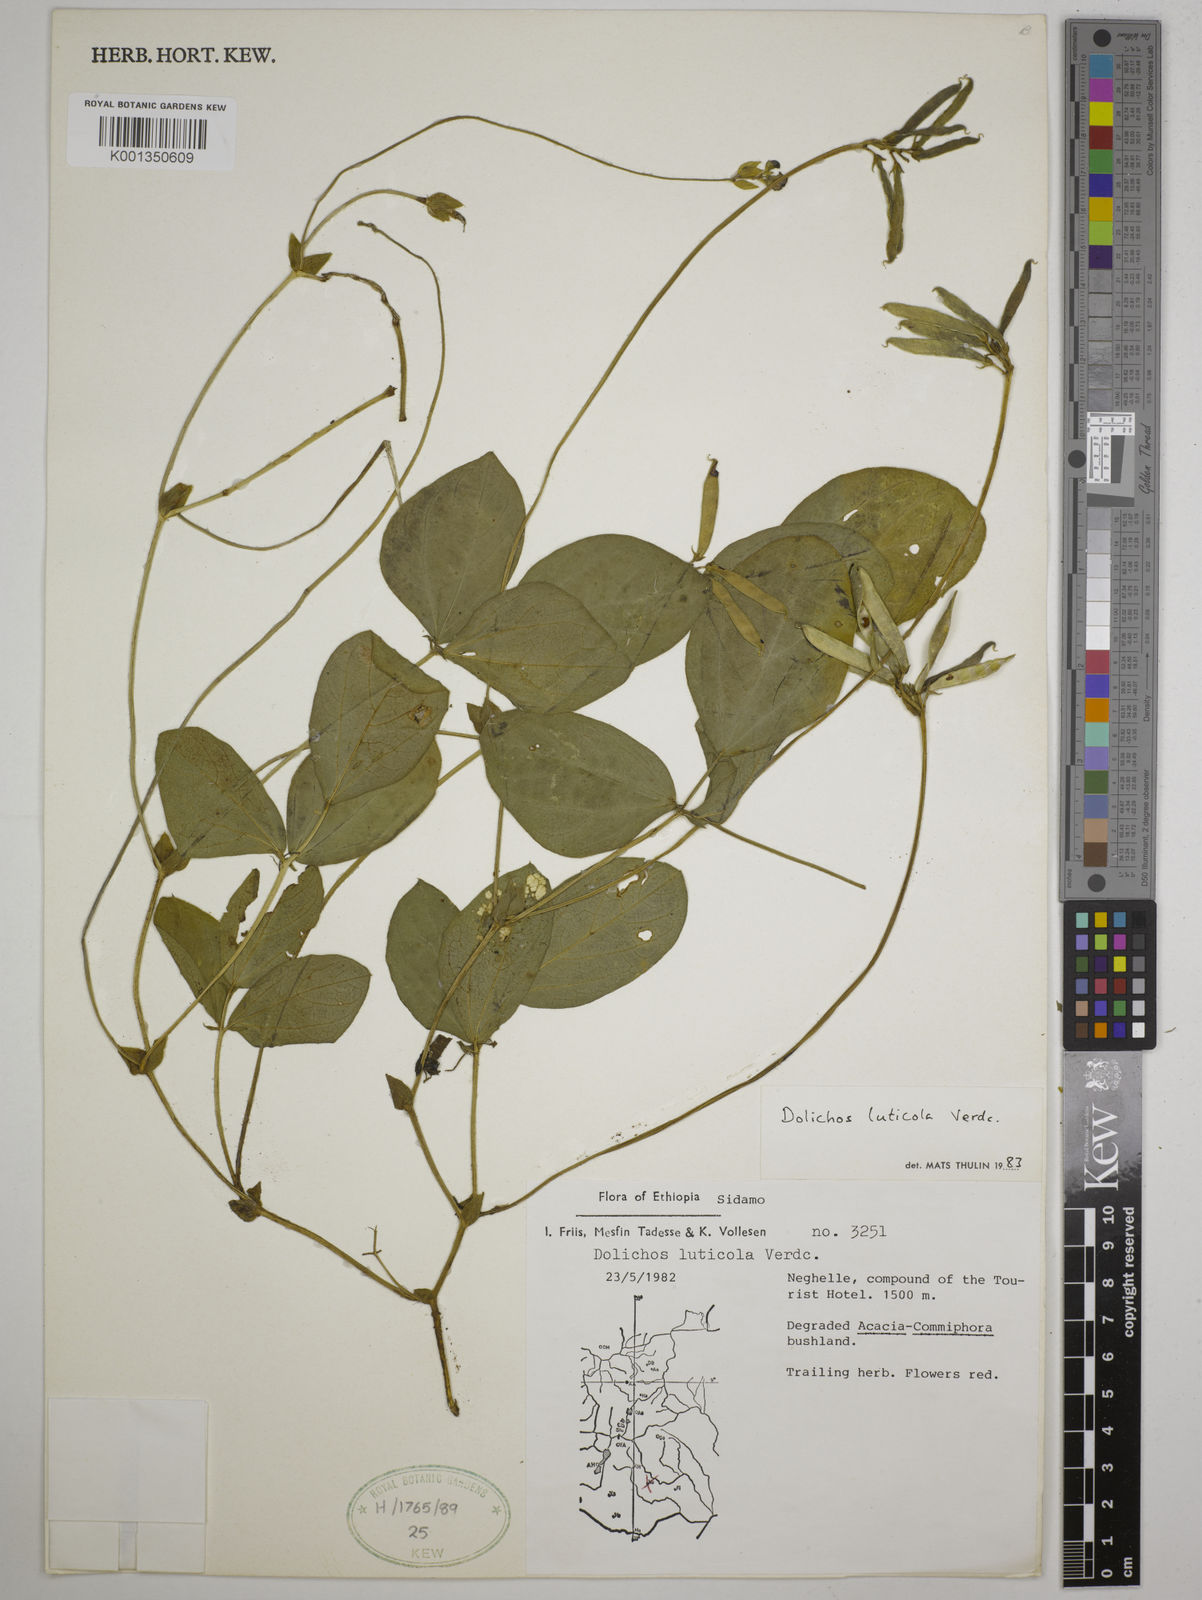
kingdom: Plantae
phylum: Tracheophyta
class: Magnoliopsida
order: Fabales
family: Fabaceae
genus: Dolichos
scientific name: Dolichos luticola
